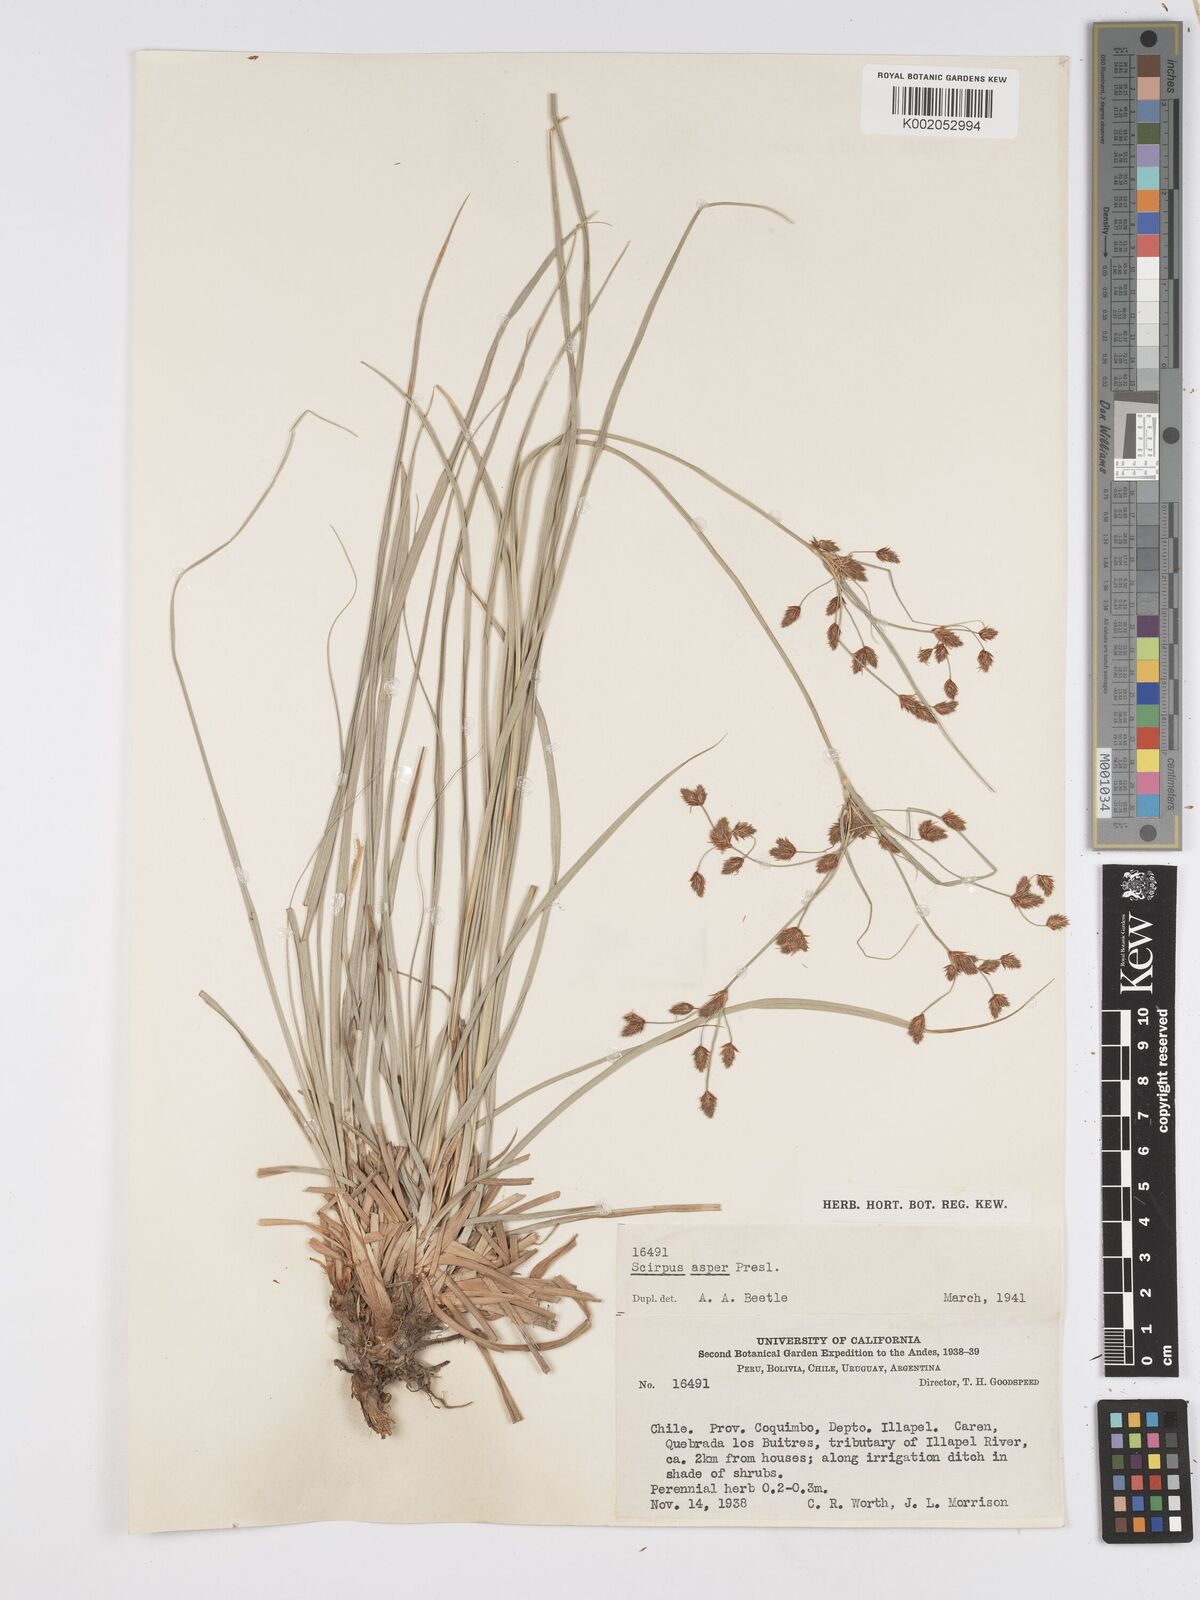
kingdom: Plantae
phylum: Tracheophyta
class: Liliopsida
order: Poales
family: Cyperaceae
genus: Rhodoscirpus
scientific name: Rhodoscirpus asper
